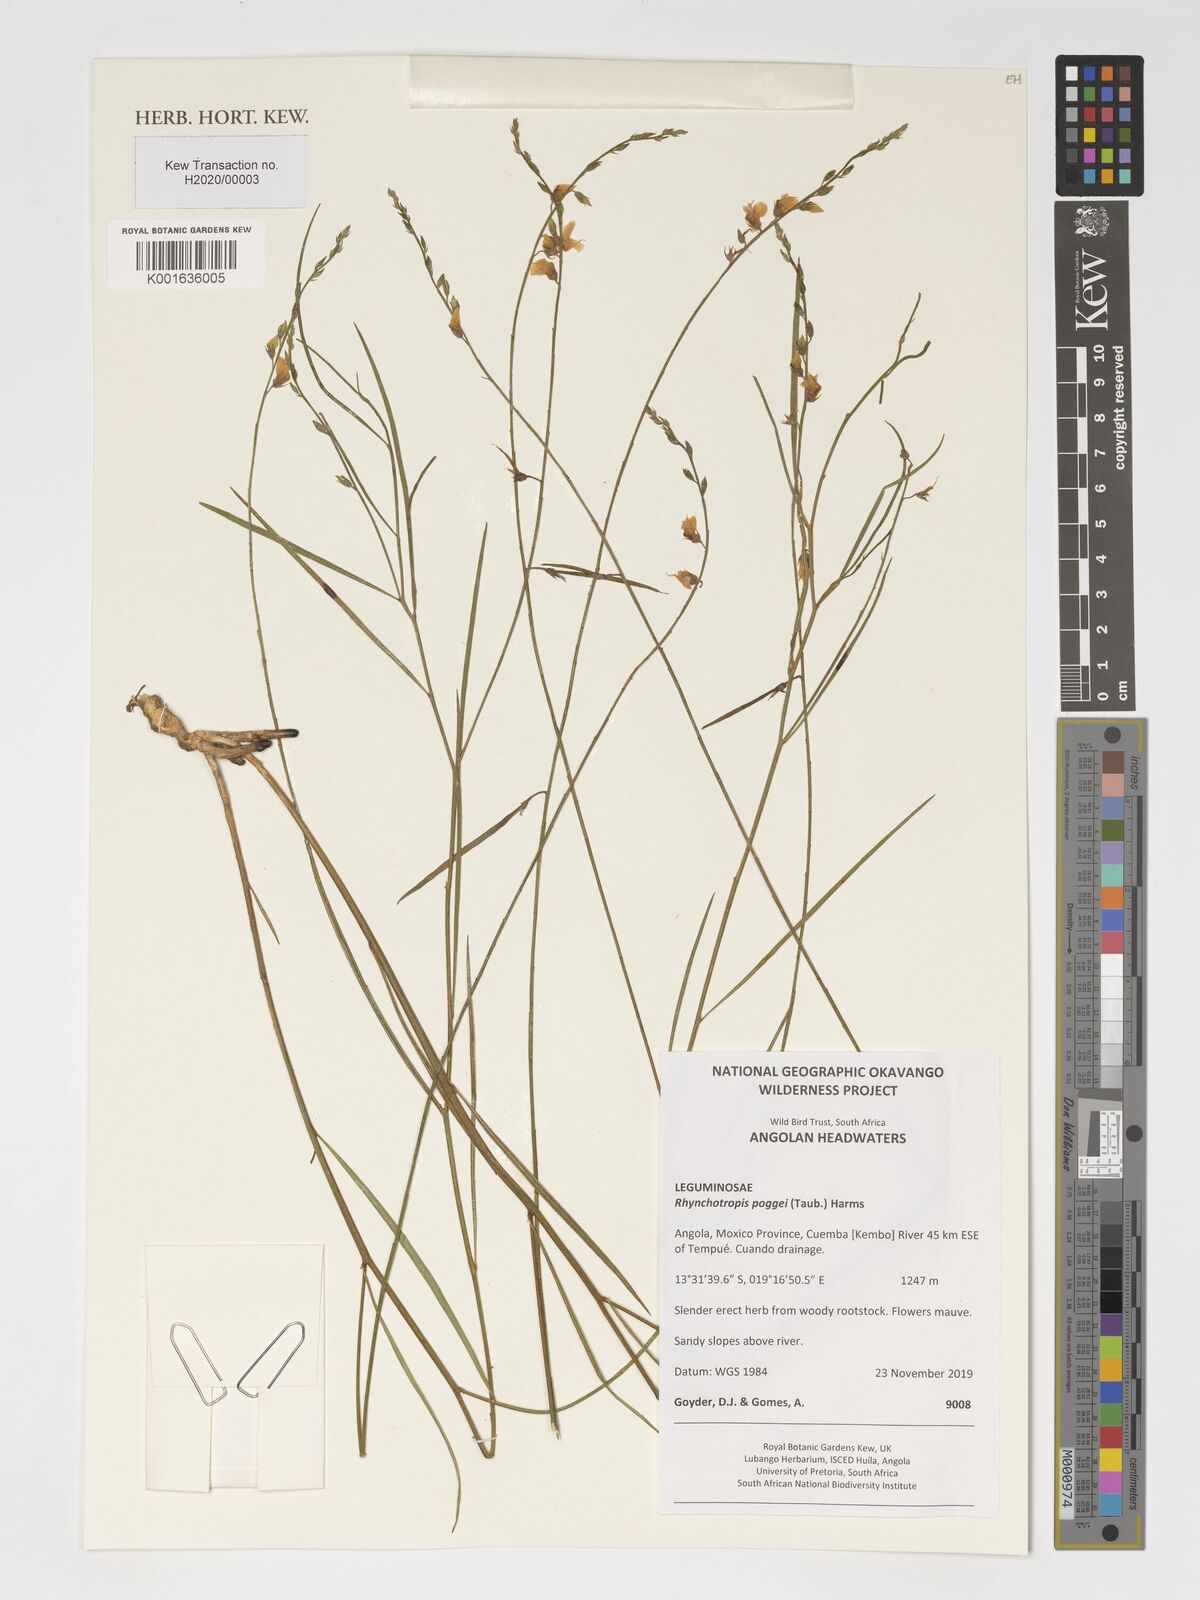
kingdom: Plantae
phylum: Tracheophyta
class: Magnoliopsida
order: Fabales
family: Fabaceae
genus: Rhynchotropis
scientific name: Rhynchotropis poggei
